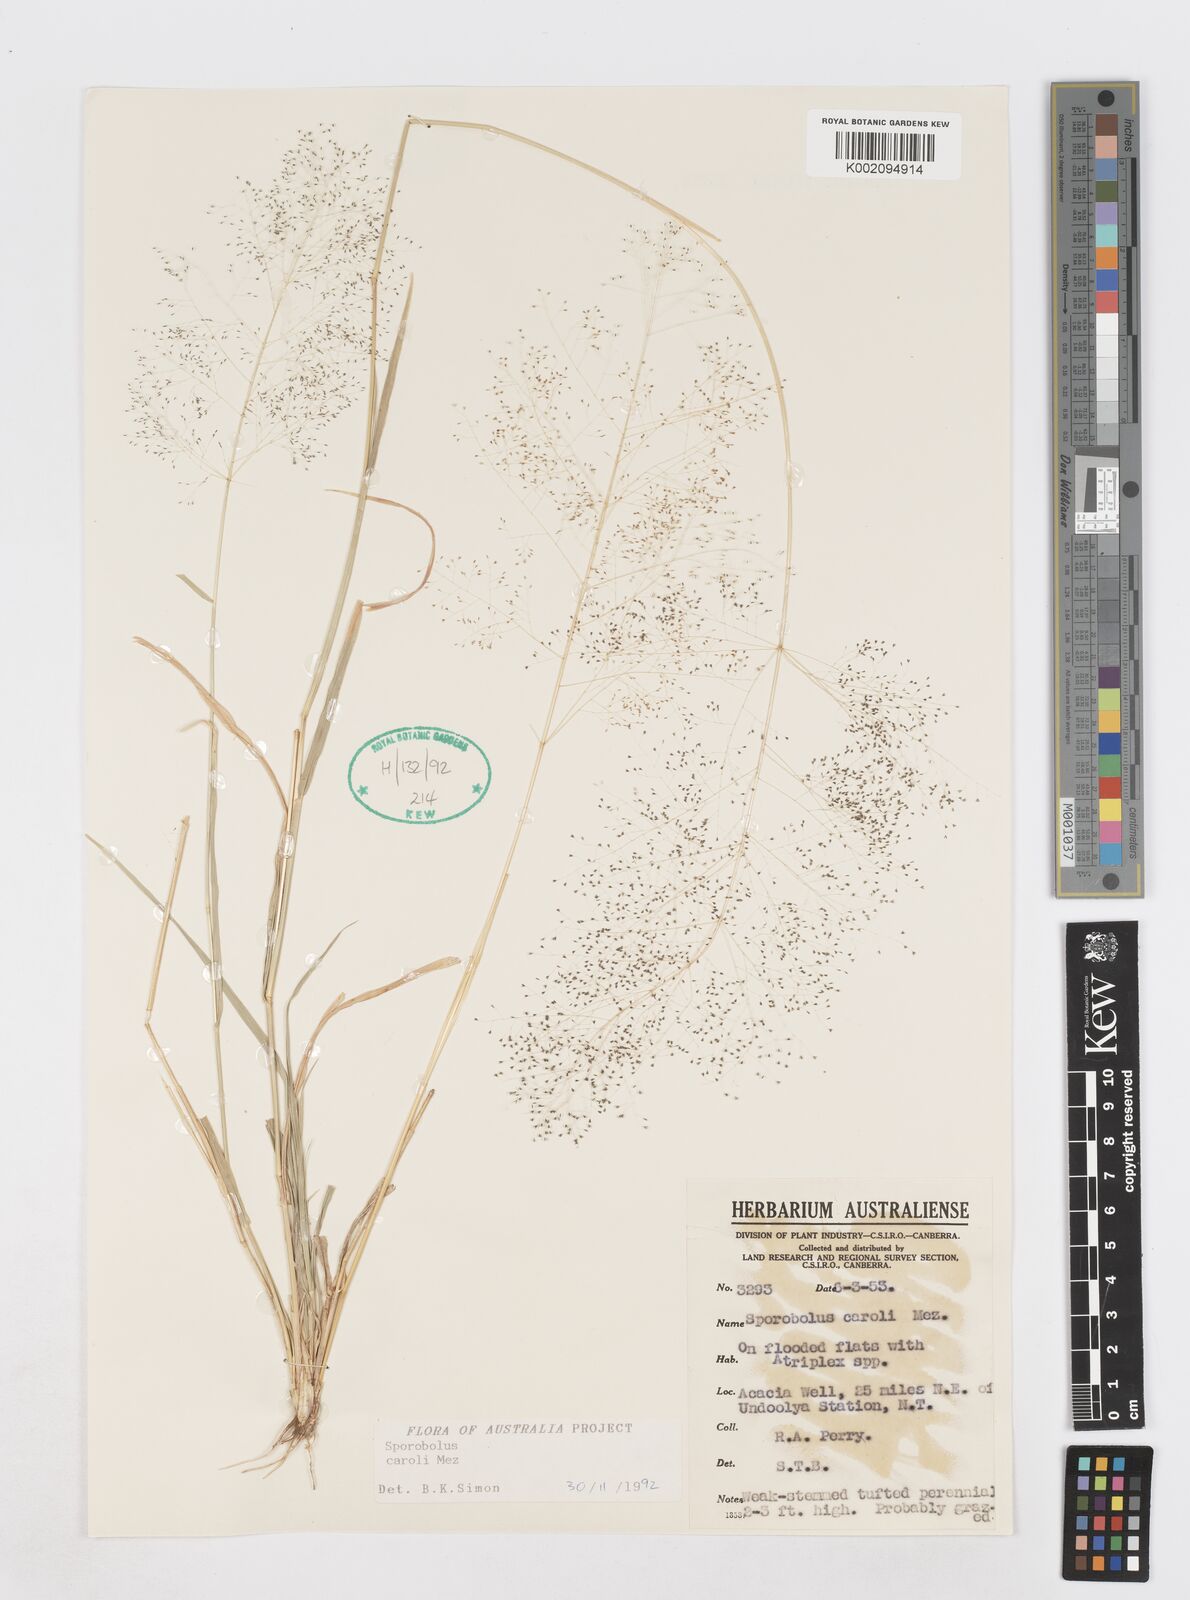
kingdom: Plantae
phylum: Tracheophyta
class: Liliopsida
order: Poales
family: Poaceae
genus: Sporobolus
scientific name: Sporobolus caroli
